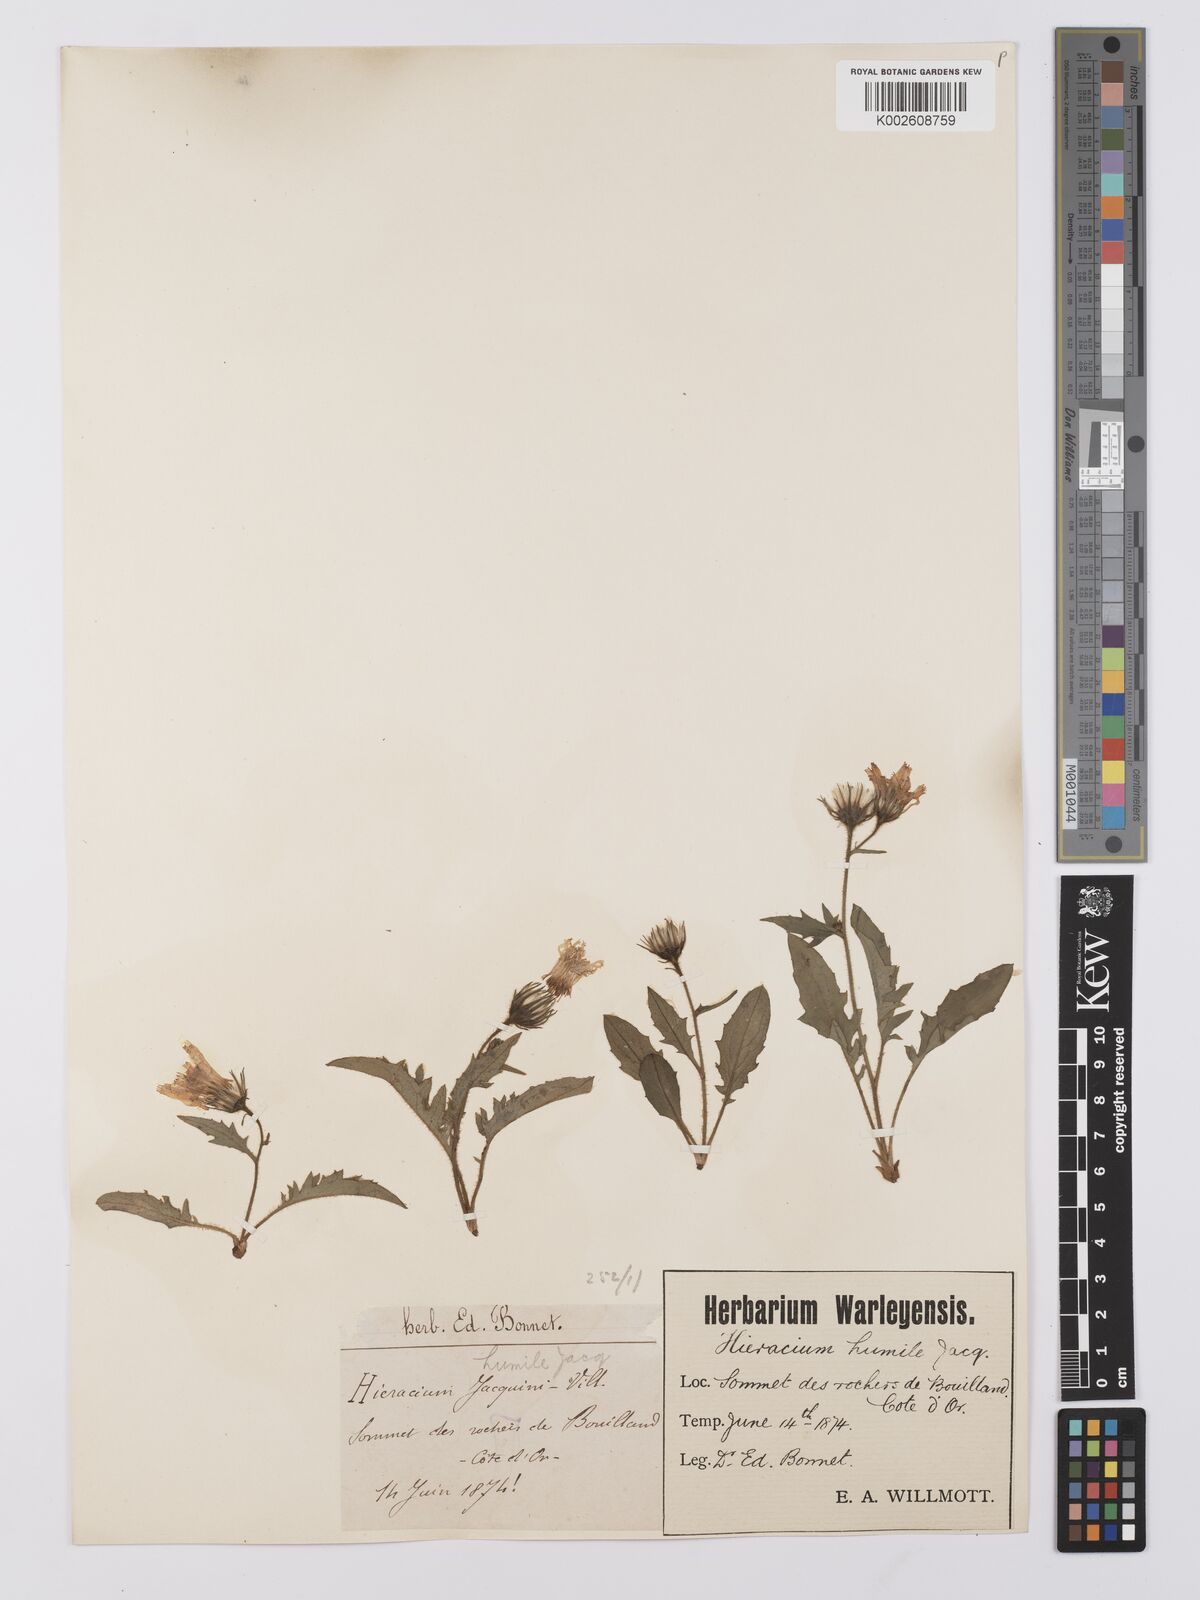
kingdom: Plantae
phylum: Tracheophyta
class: Magnoliopsida
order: Asterales
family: Asteraceae
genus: Hieracium
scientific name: Hieracium humile
